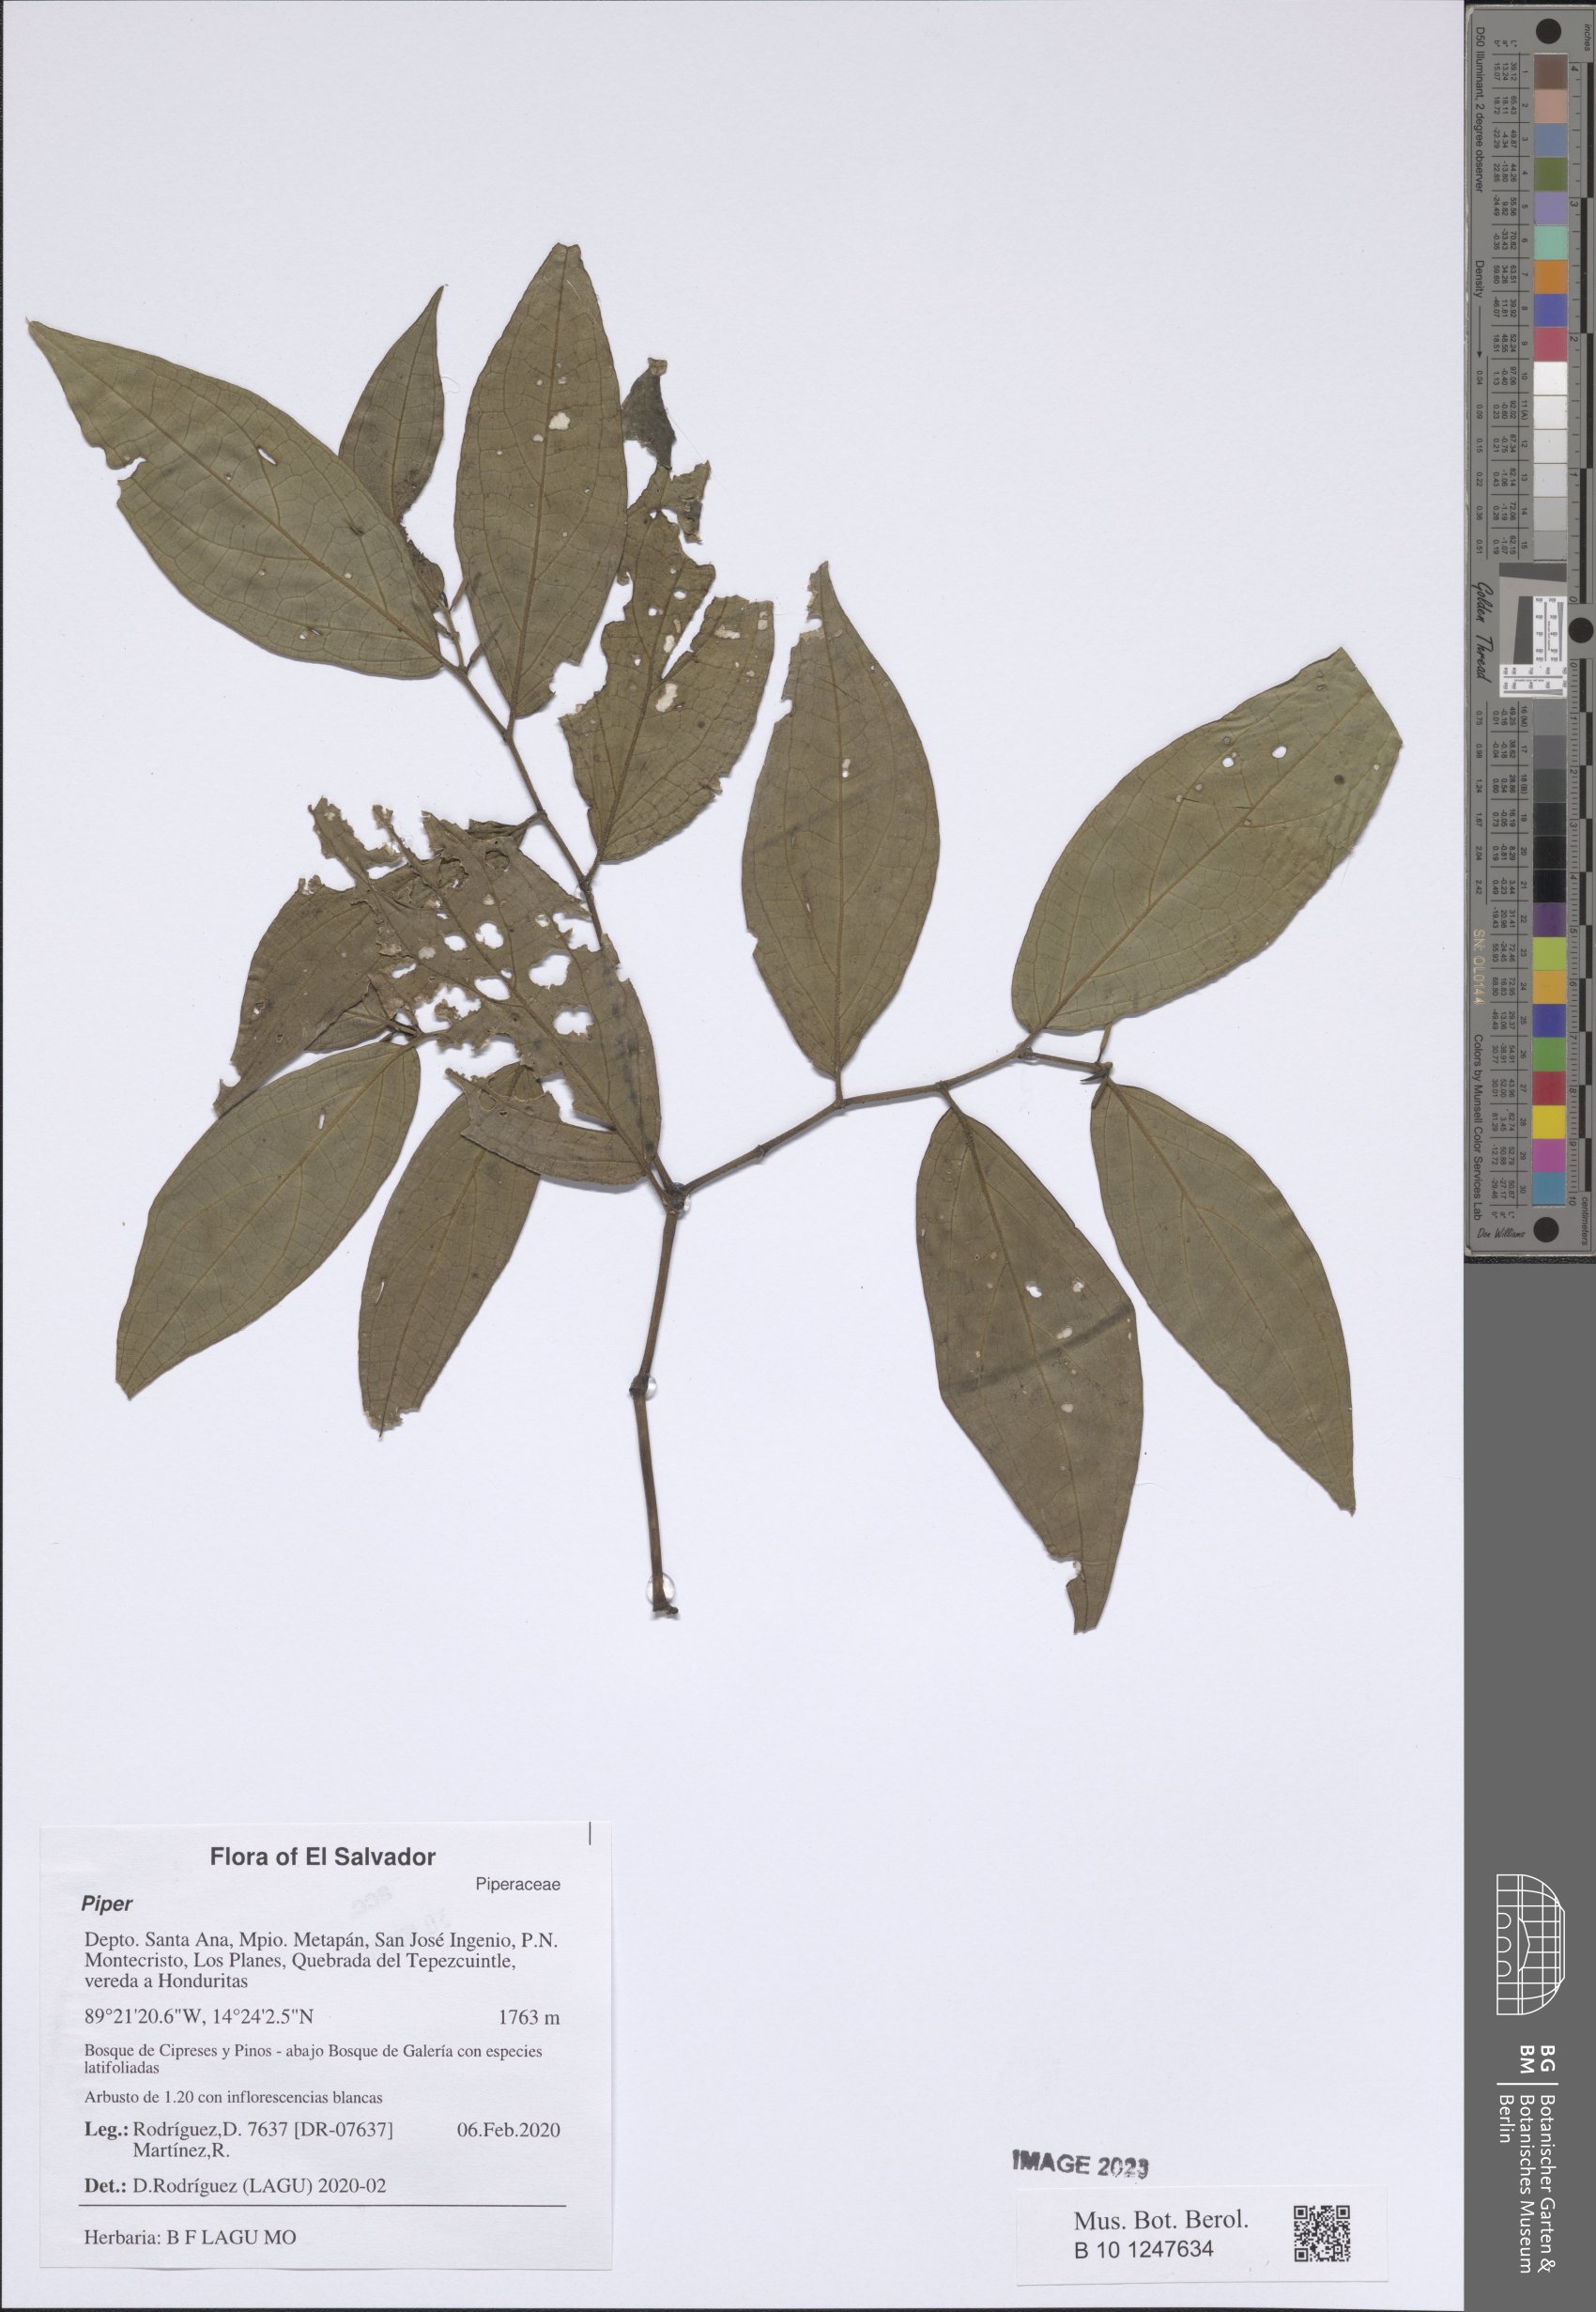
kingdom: Plantae
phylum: Tracheophyta
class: Magnoliopsida
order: Piperales
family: Piperaceae
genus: Piper
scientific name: Piper
